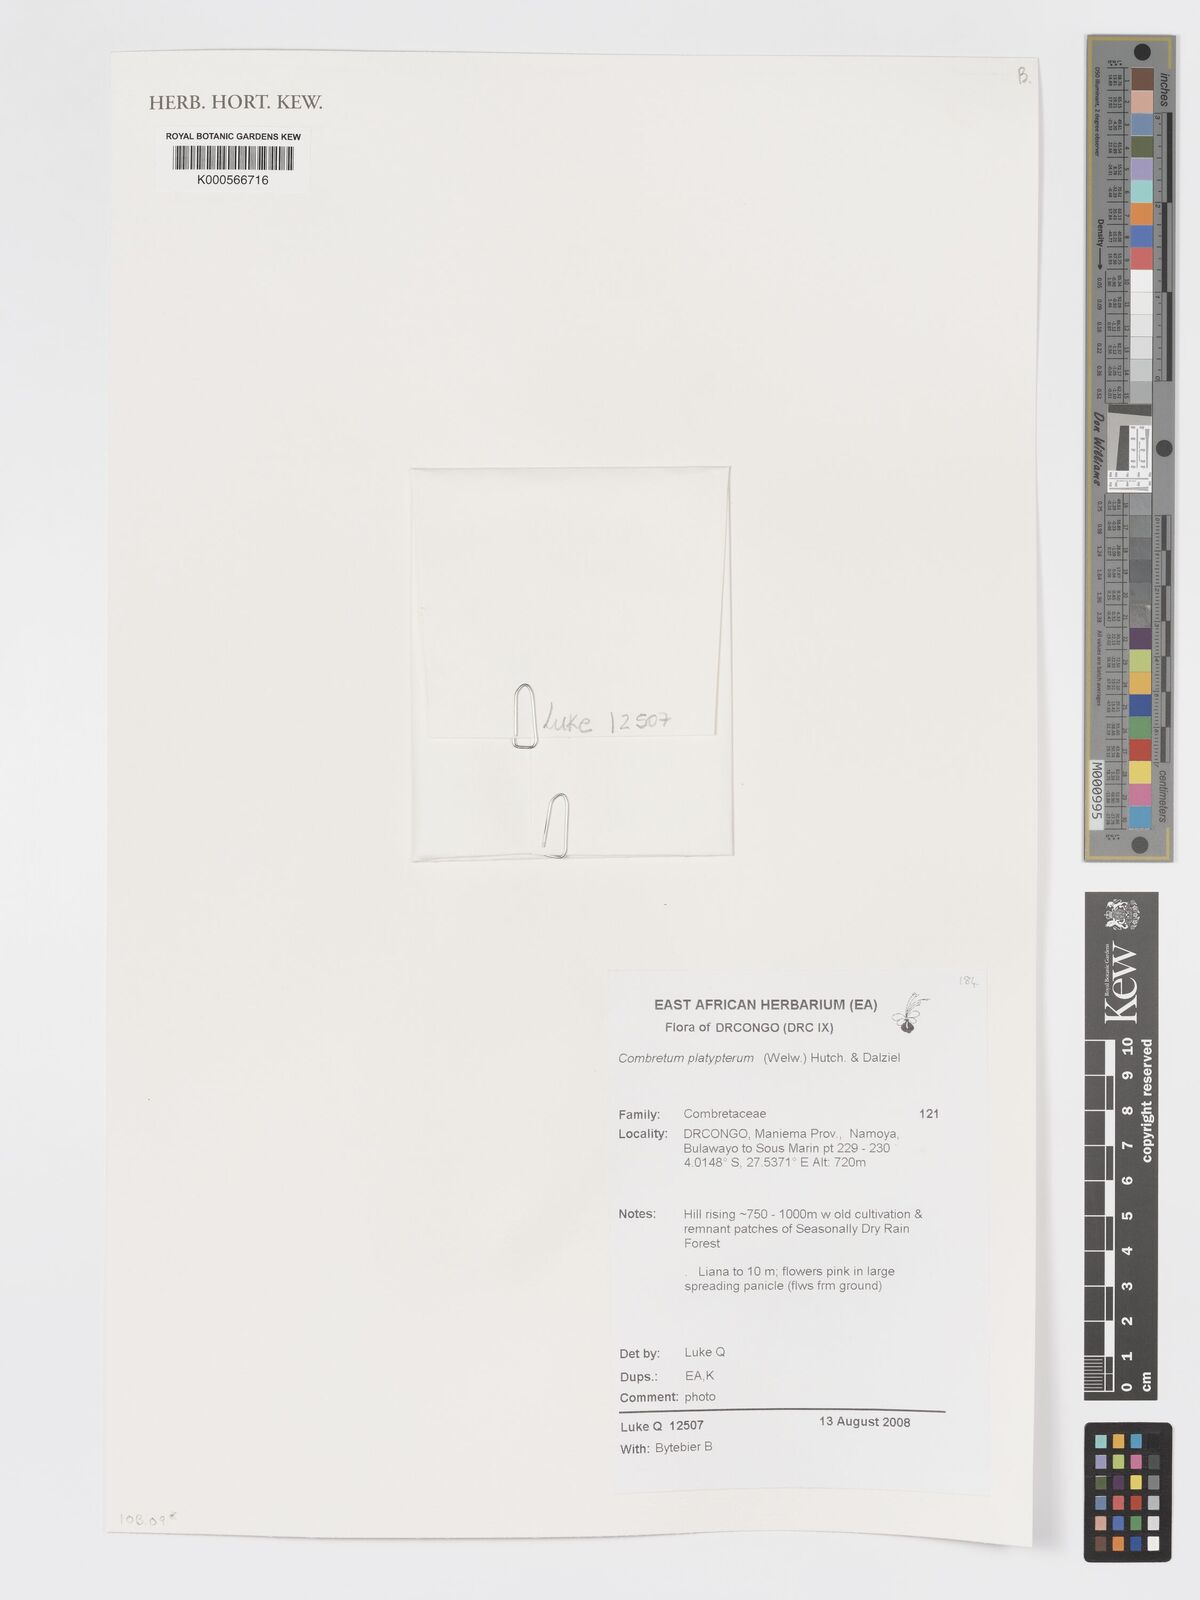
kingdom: Plantae
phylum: Tracheophyta
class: Magnoliopsida
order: Myrtales
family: Combretaceae
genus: Combretum
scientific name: Combretum platypterum
